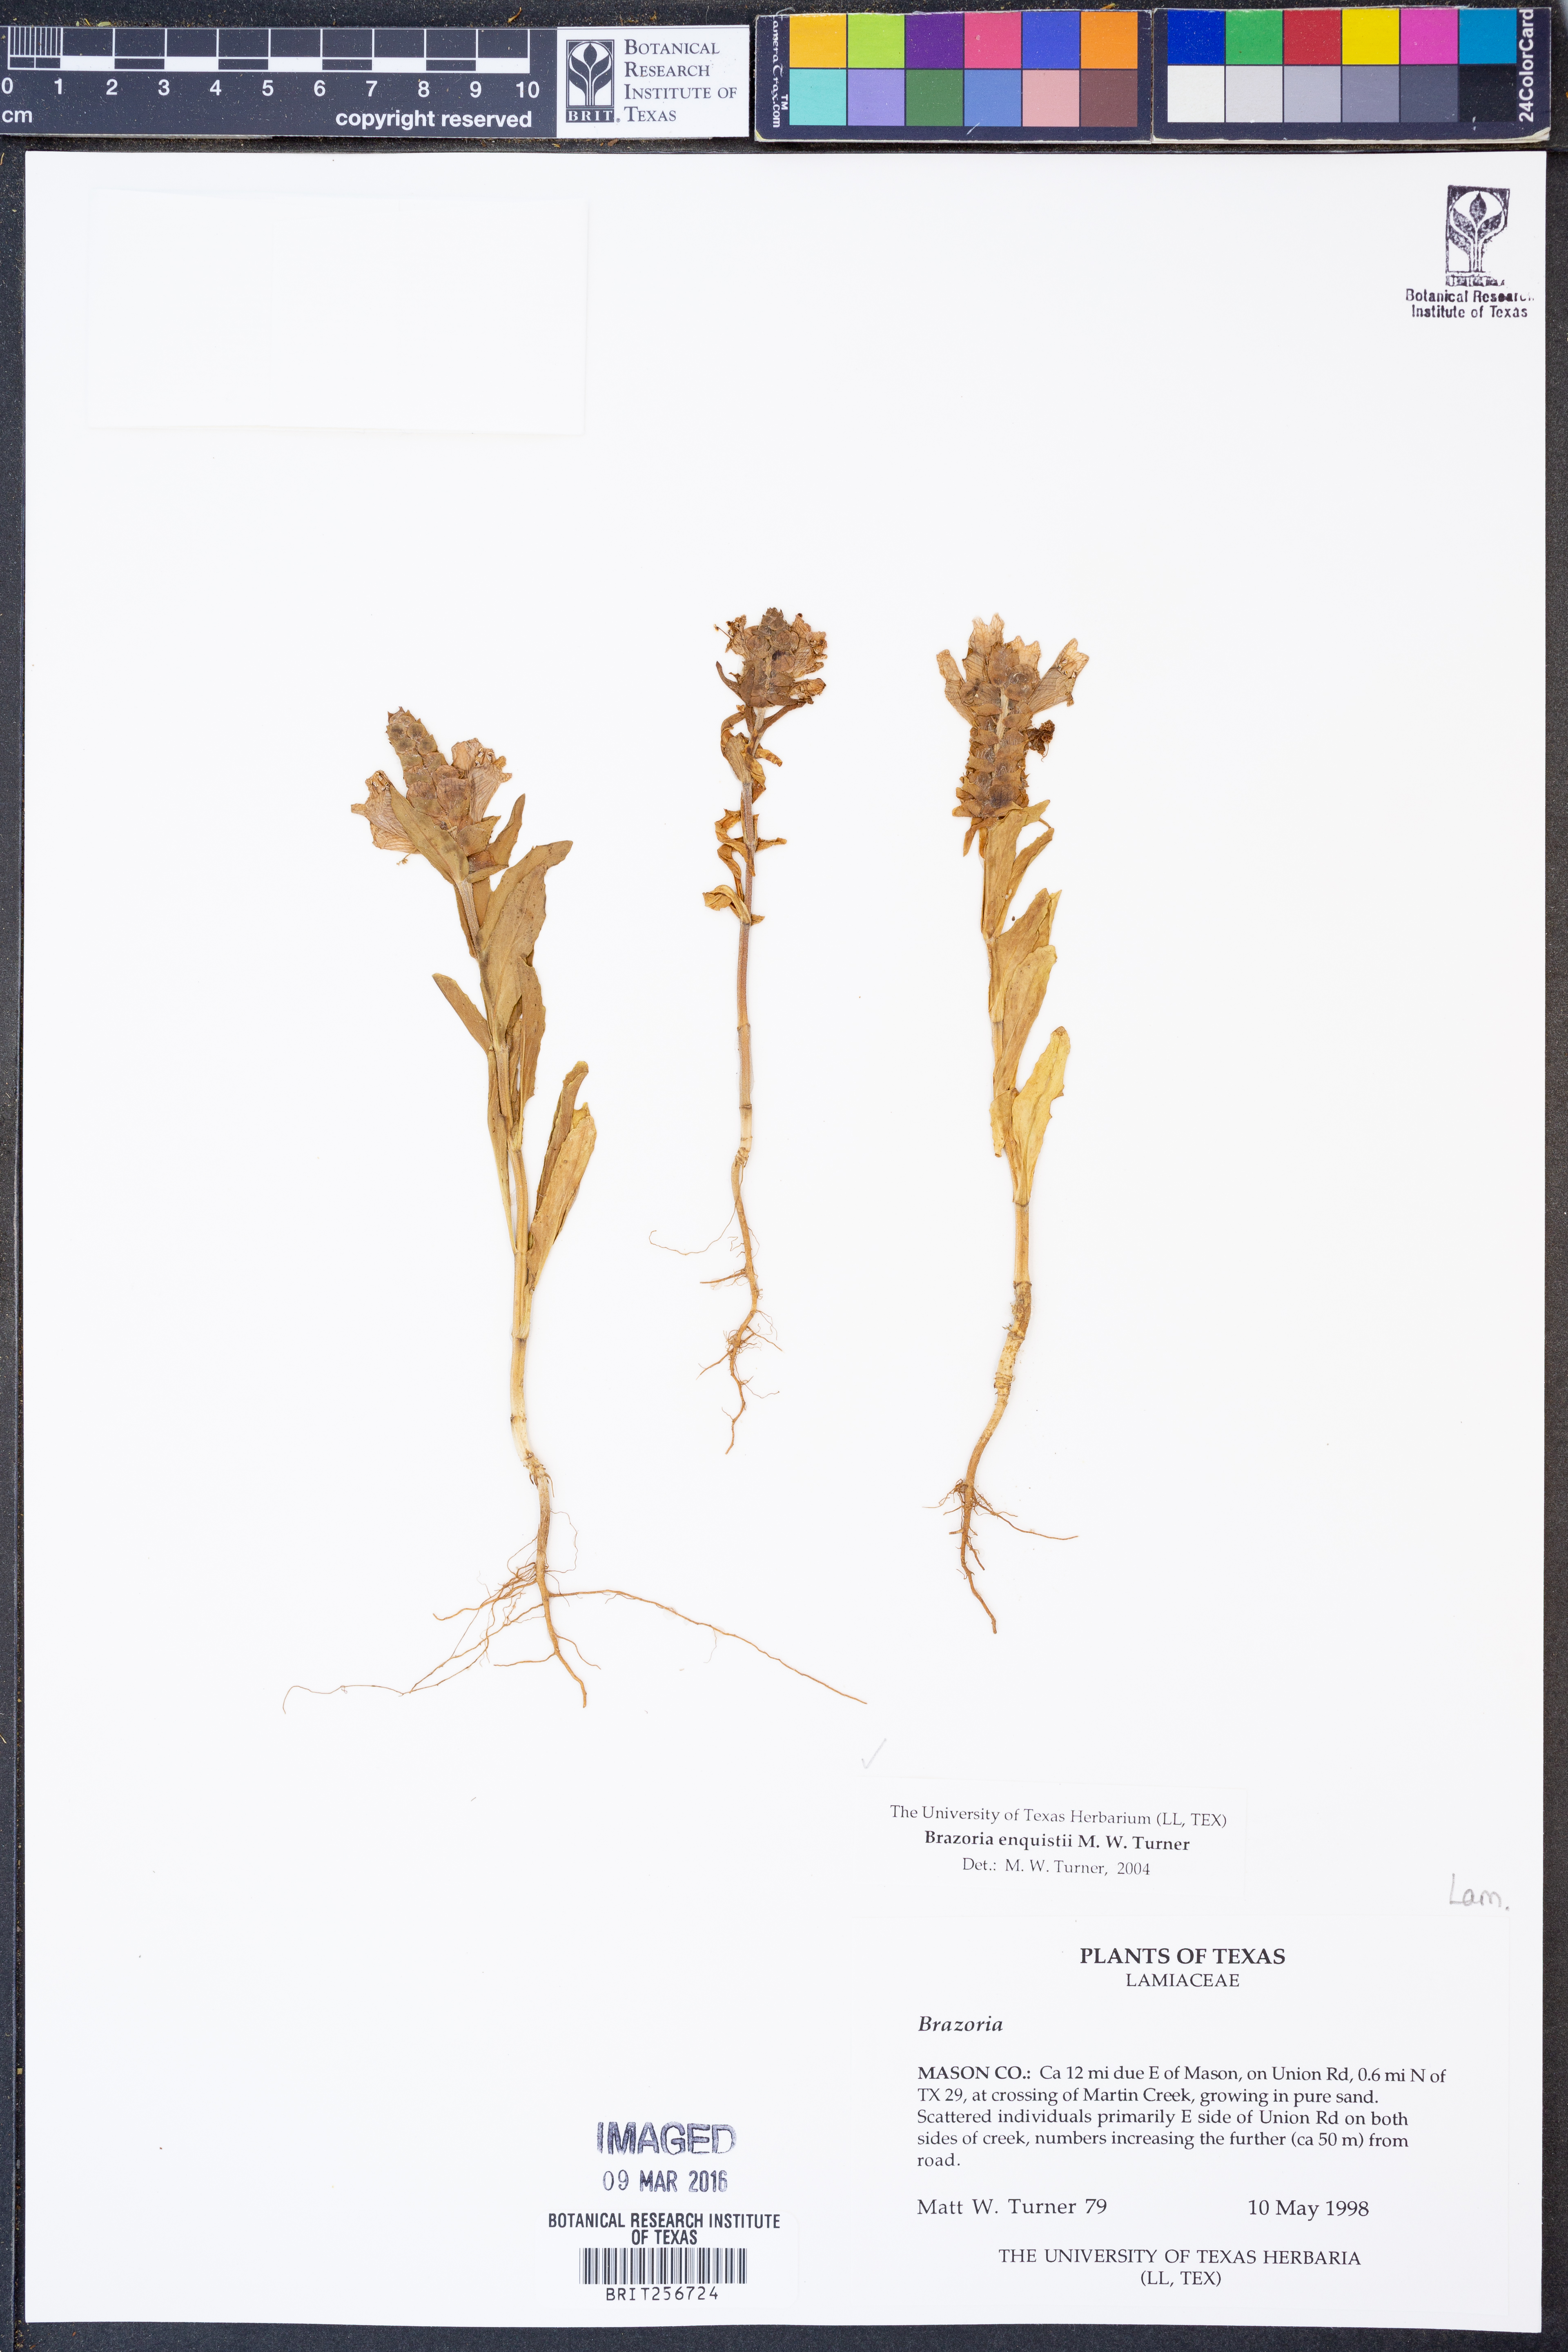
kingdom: Plantae
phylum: Tracheophyta
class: Magnoliopsida
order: Lamiales
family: Lamiaceae
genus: Brazoria
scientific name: Brazoria enquistii
